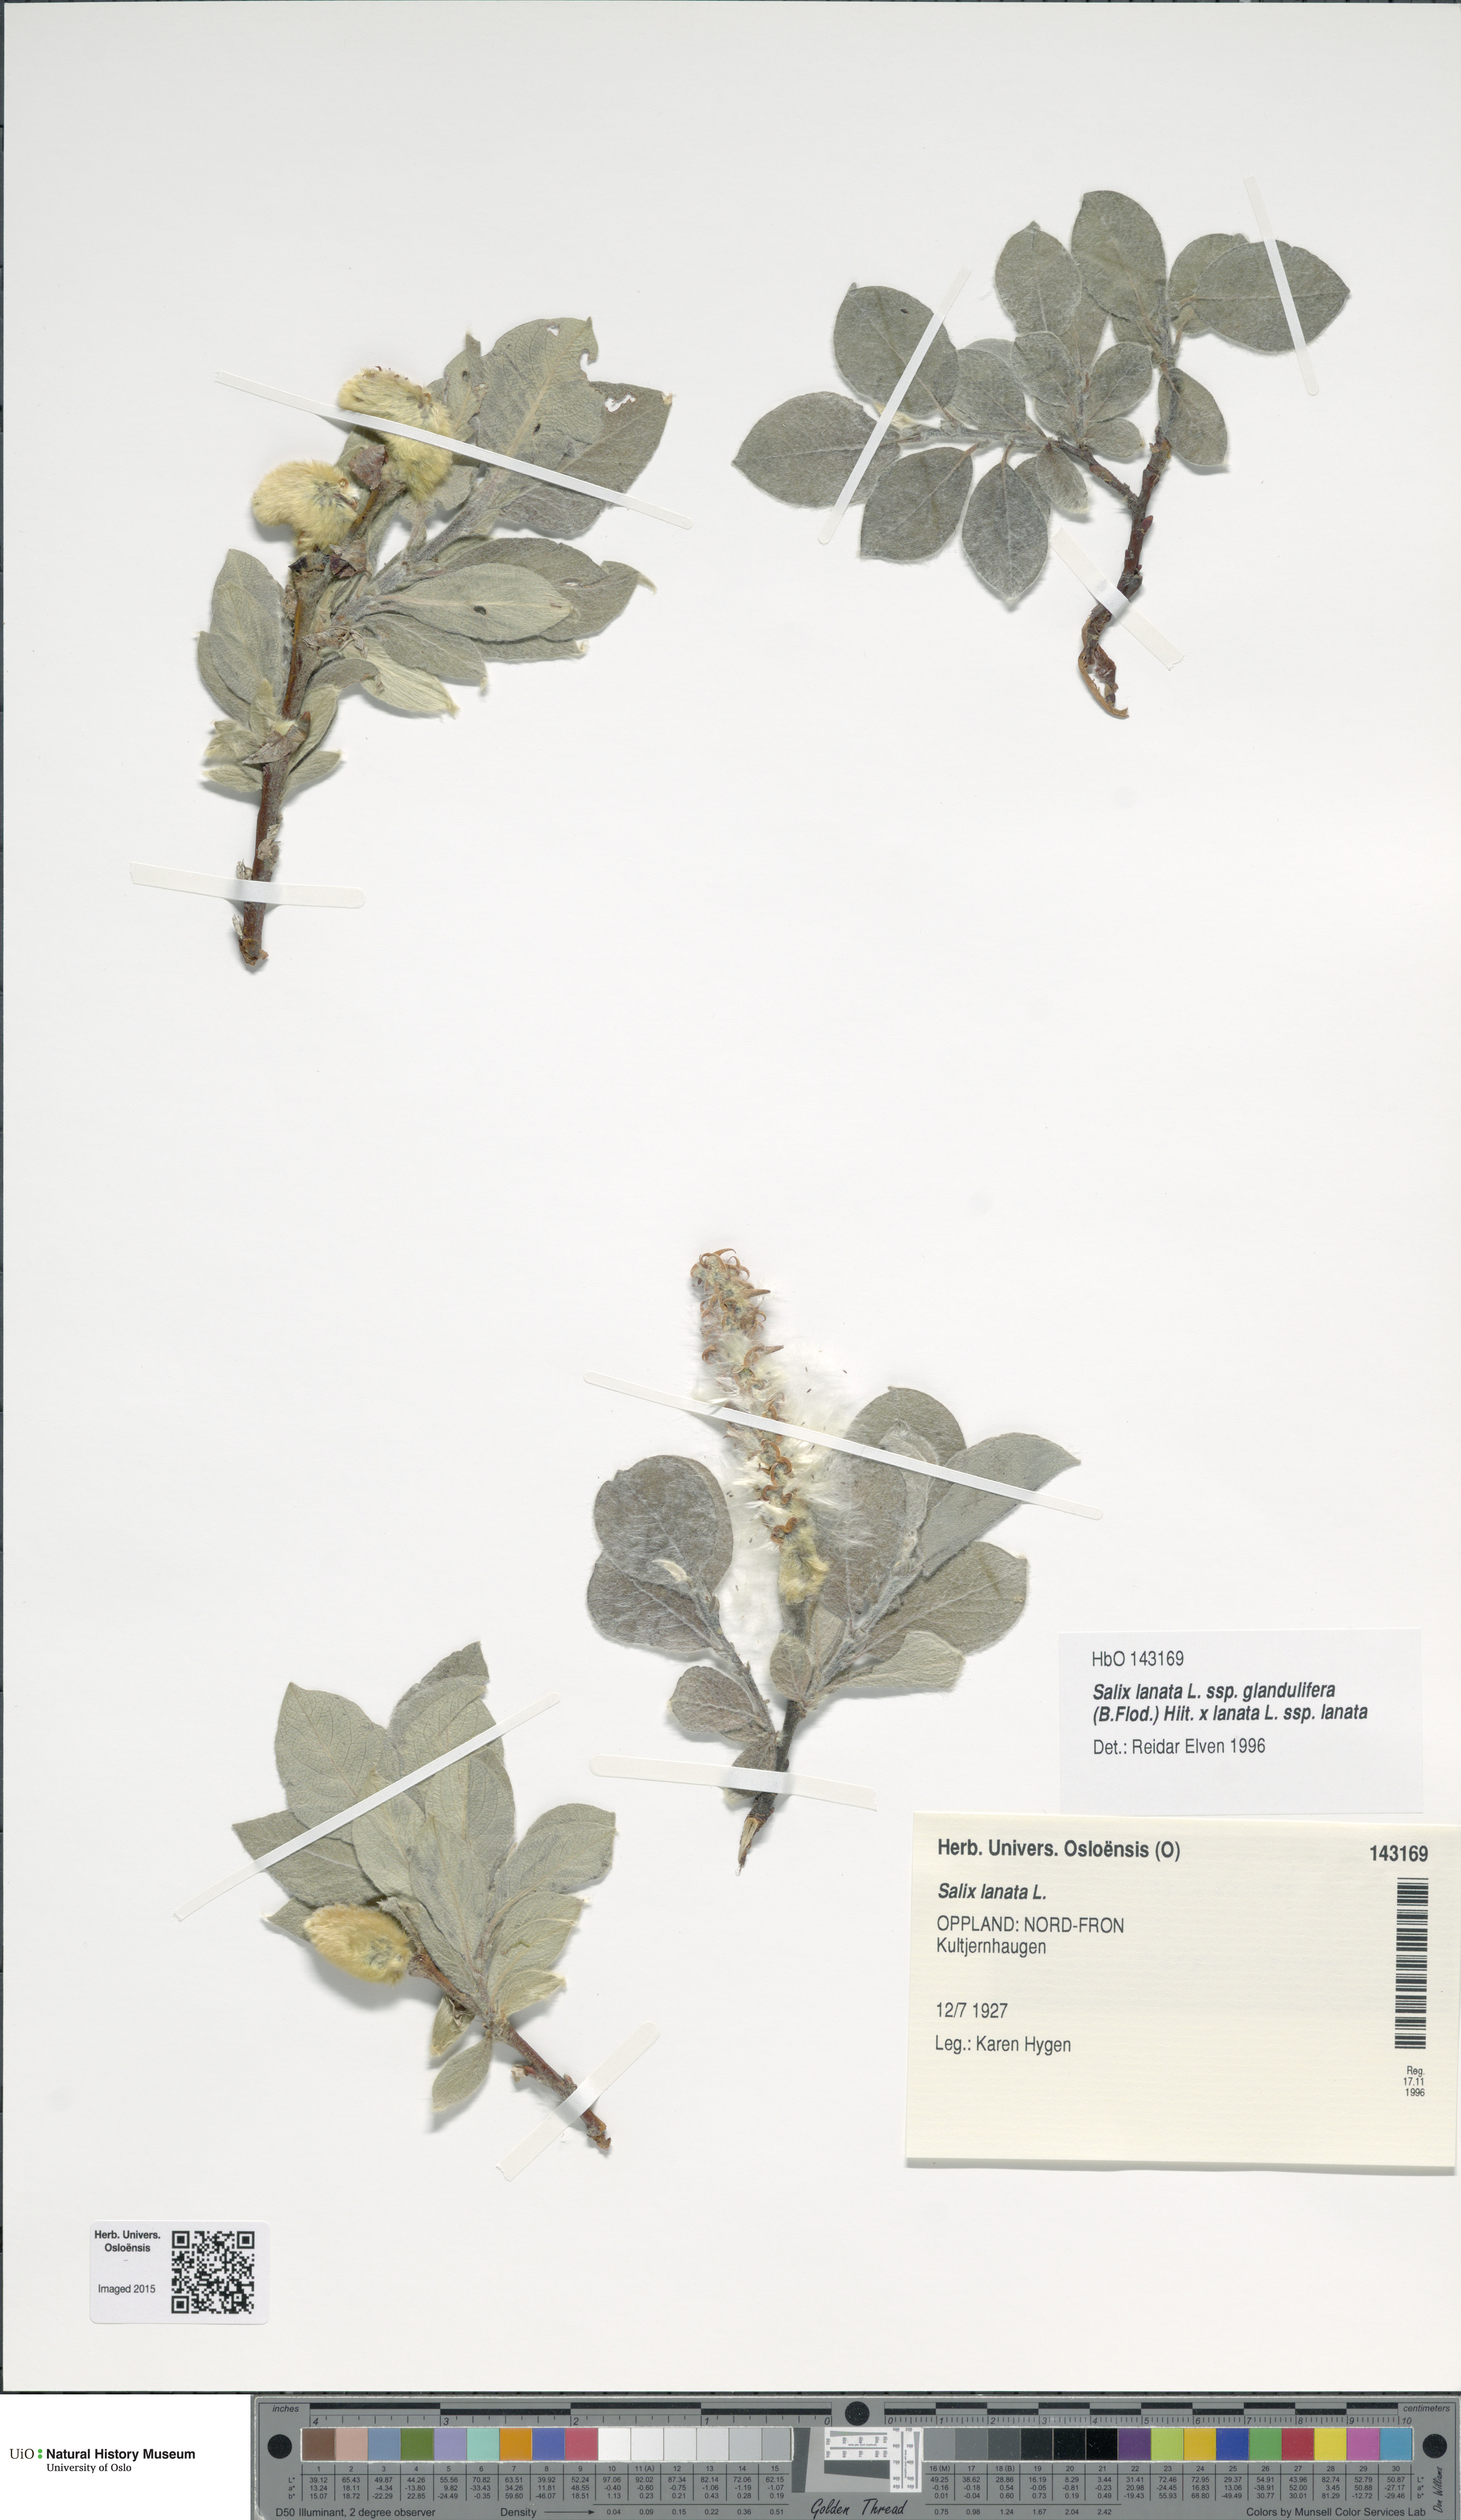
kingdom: Plantae
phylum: Tracheophyta
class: Magnoliopsida
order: Malpighiales
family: Salicaceae
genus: Salix
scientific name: Salix
